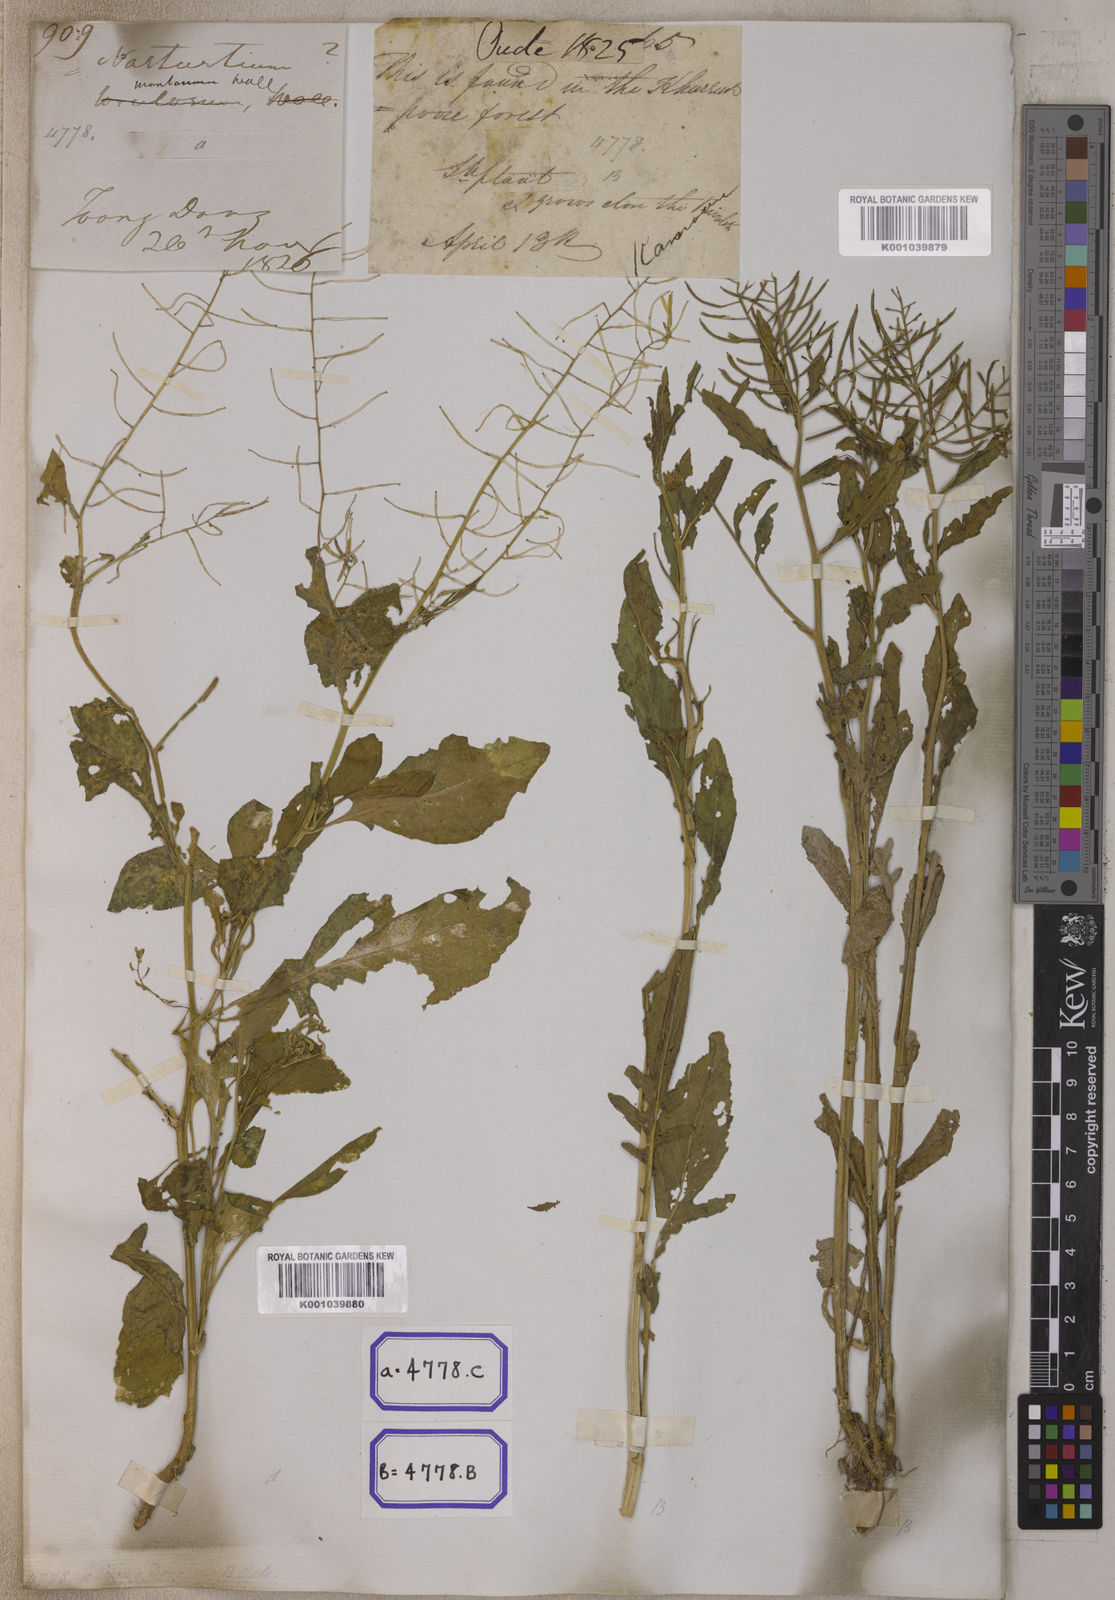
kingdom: Plantae
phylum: Tracheophyta
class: Magnoliopsida
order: Brassicales
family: Brassicaceae
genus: Nasturtium
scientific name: Nasturtium
